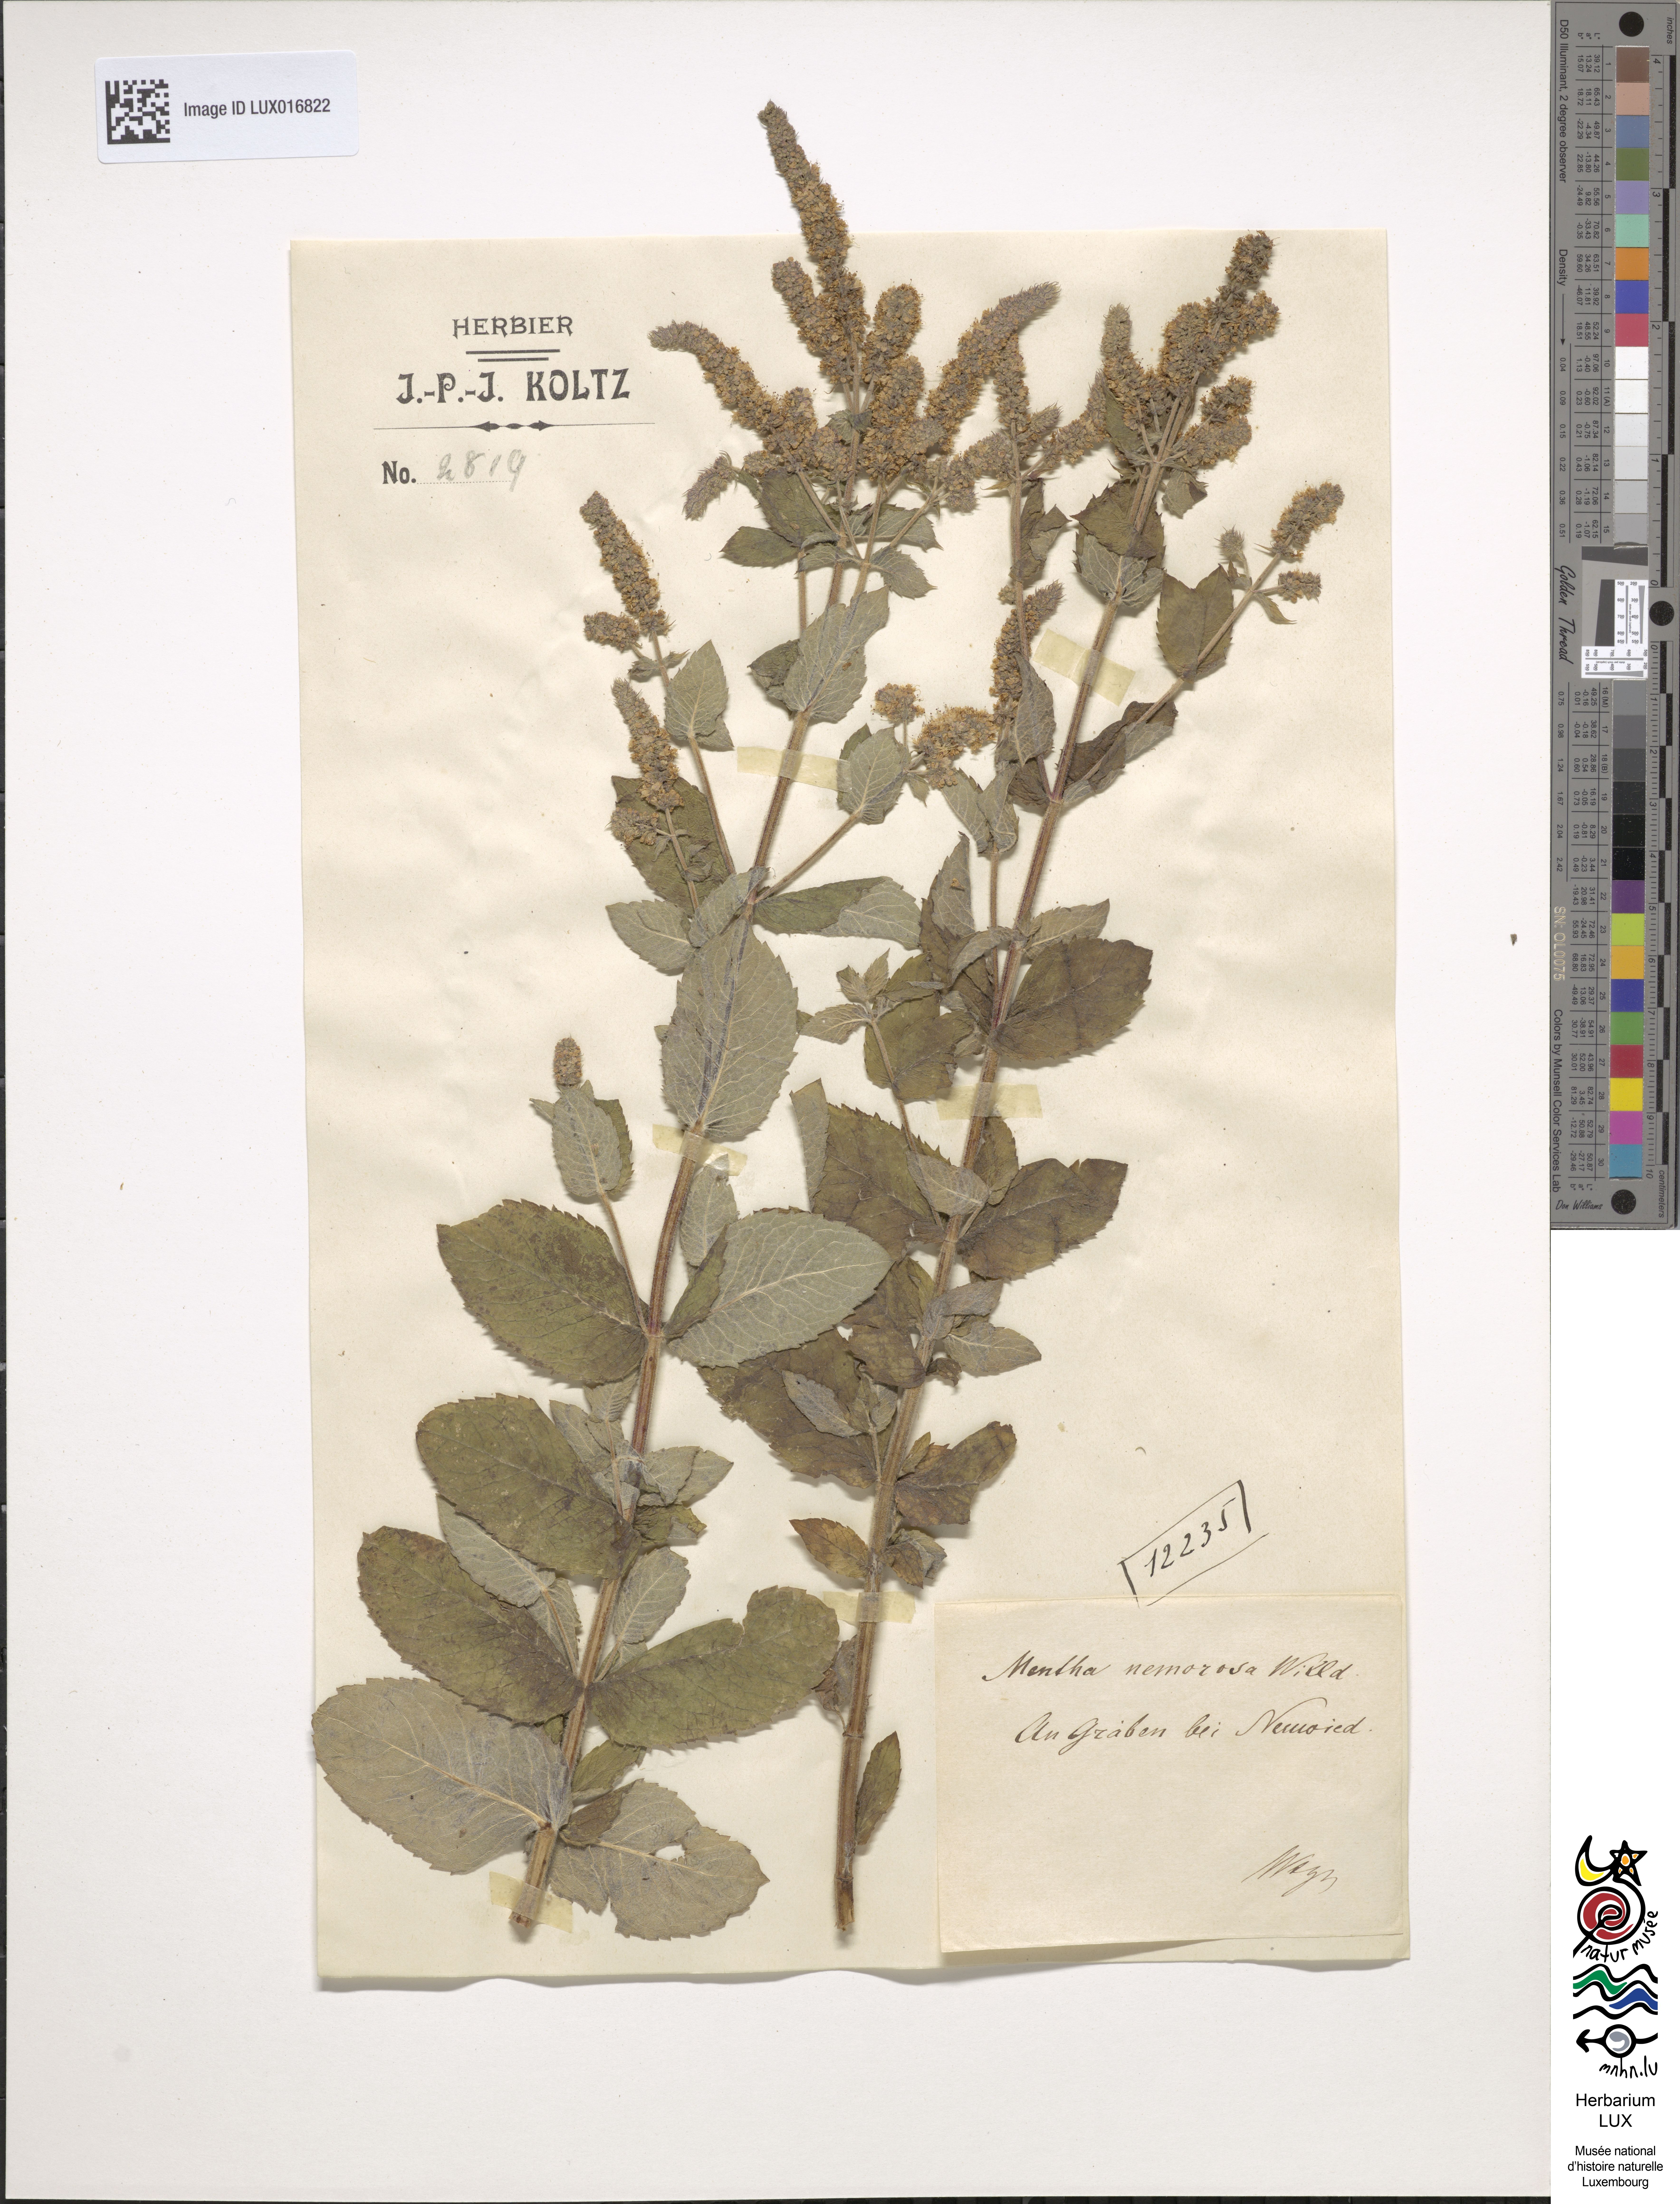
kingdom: Plantae
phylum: Tracheophyta
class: Magnoliopsida
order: Lamiales
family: Lamiaceae
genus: Mentha
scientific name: Mentha longifolia
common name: Horse mint
